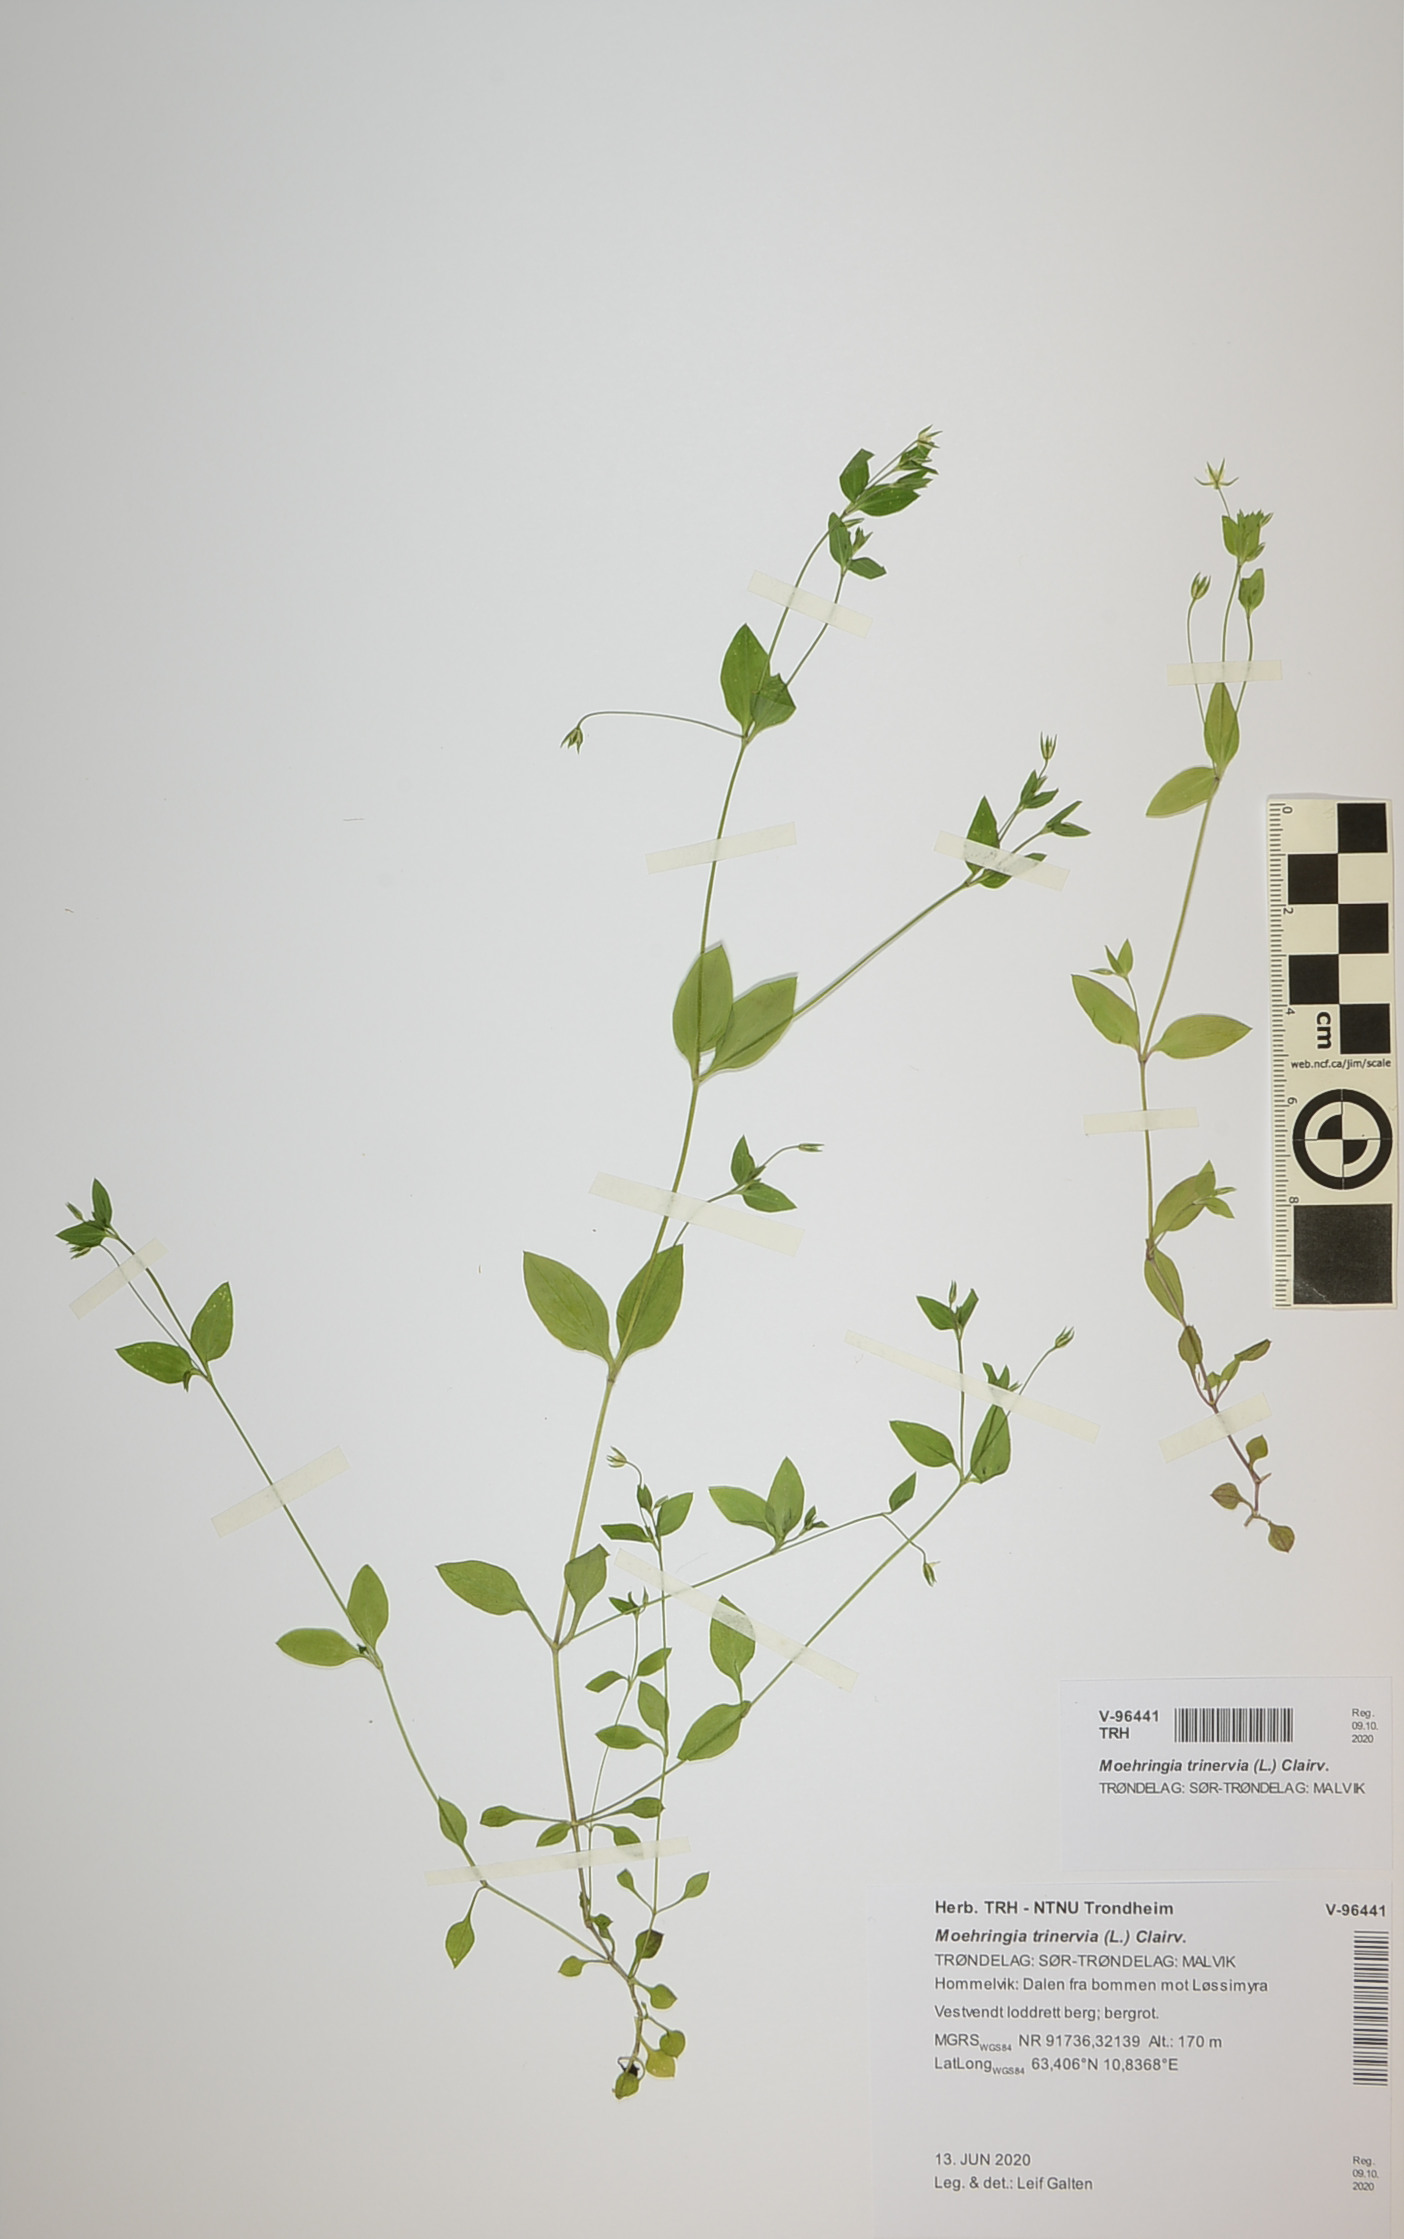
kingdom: Plantae
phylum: Tracheophyta
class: Magnoliopsida
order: Caryophyllales
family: Caryophyllaceae
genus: Moehringia
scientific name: Moehringia trinervia
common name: Three-nerved sandwort
